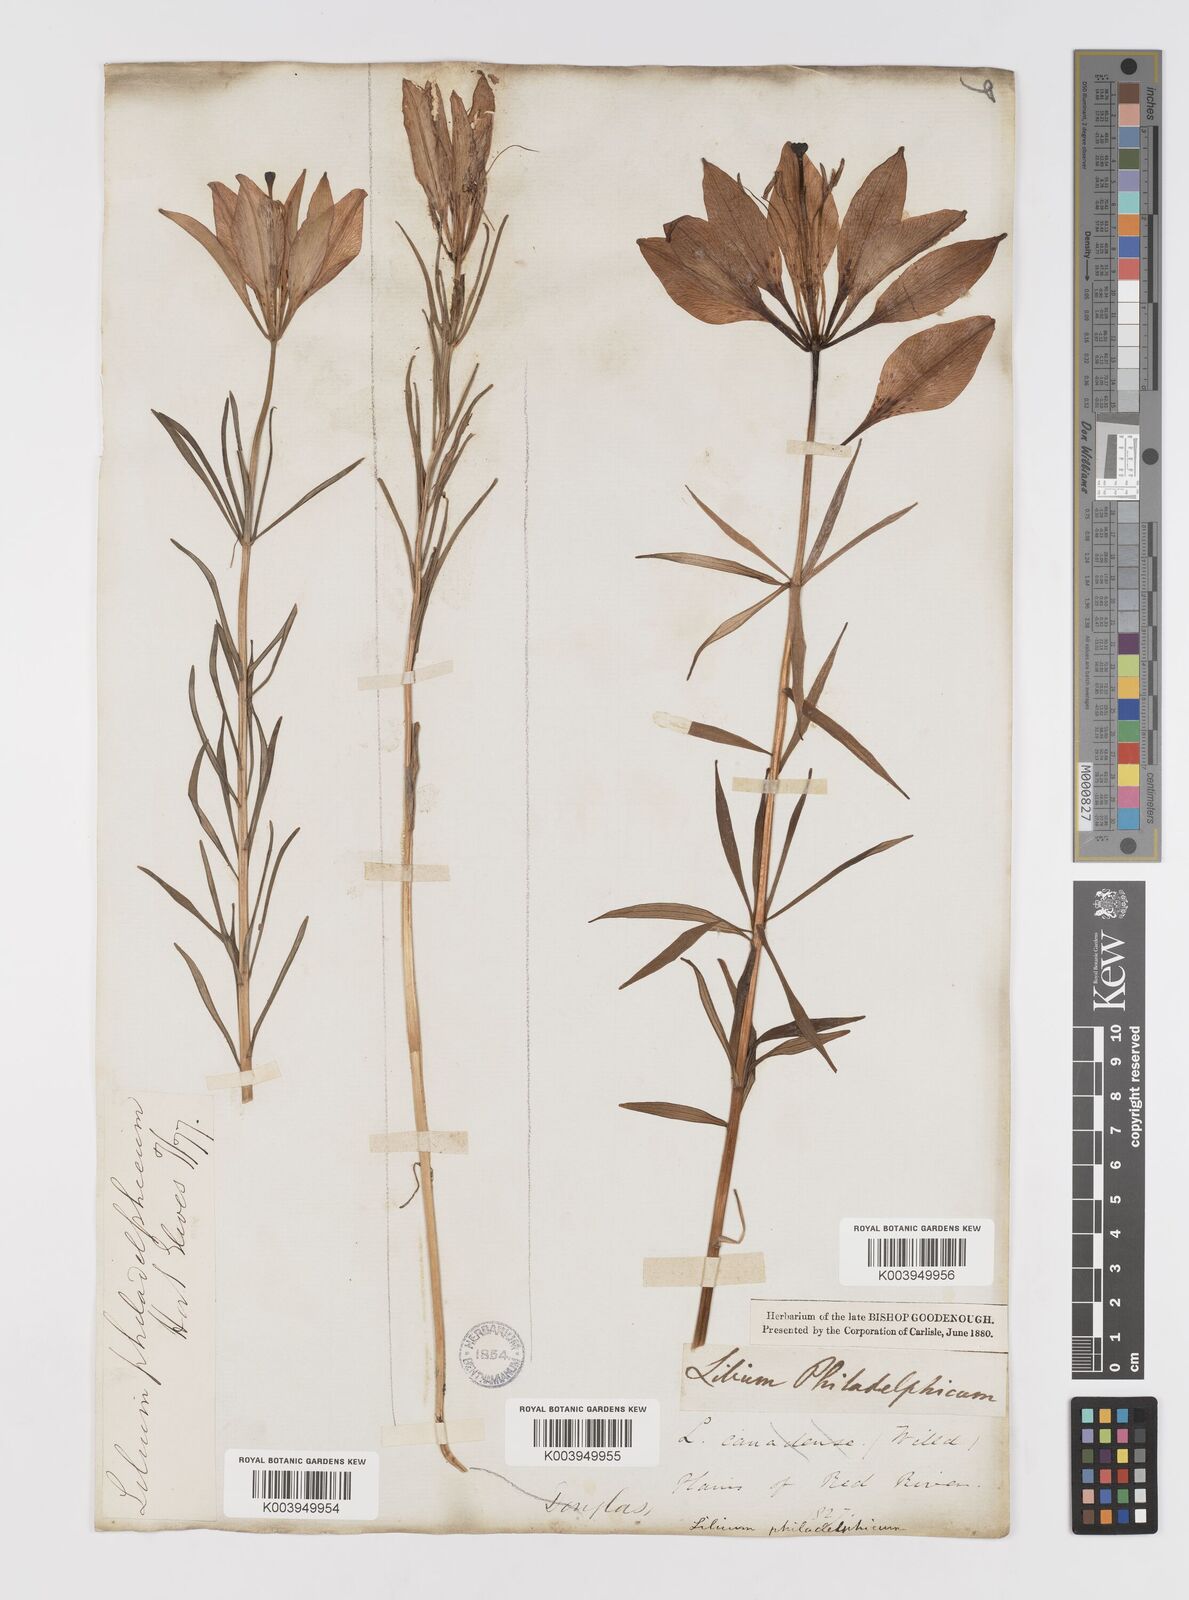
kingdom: Plantae
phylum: Tracheophyta
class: Liliopsida
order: Liliales
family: Liliaceae
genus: Lilium
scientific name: Lilium philadelphicum
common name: Red lily
